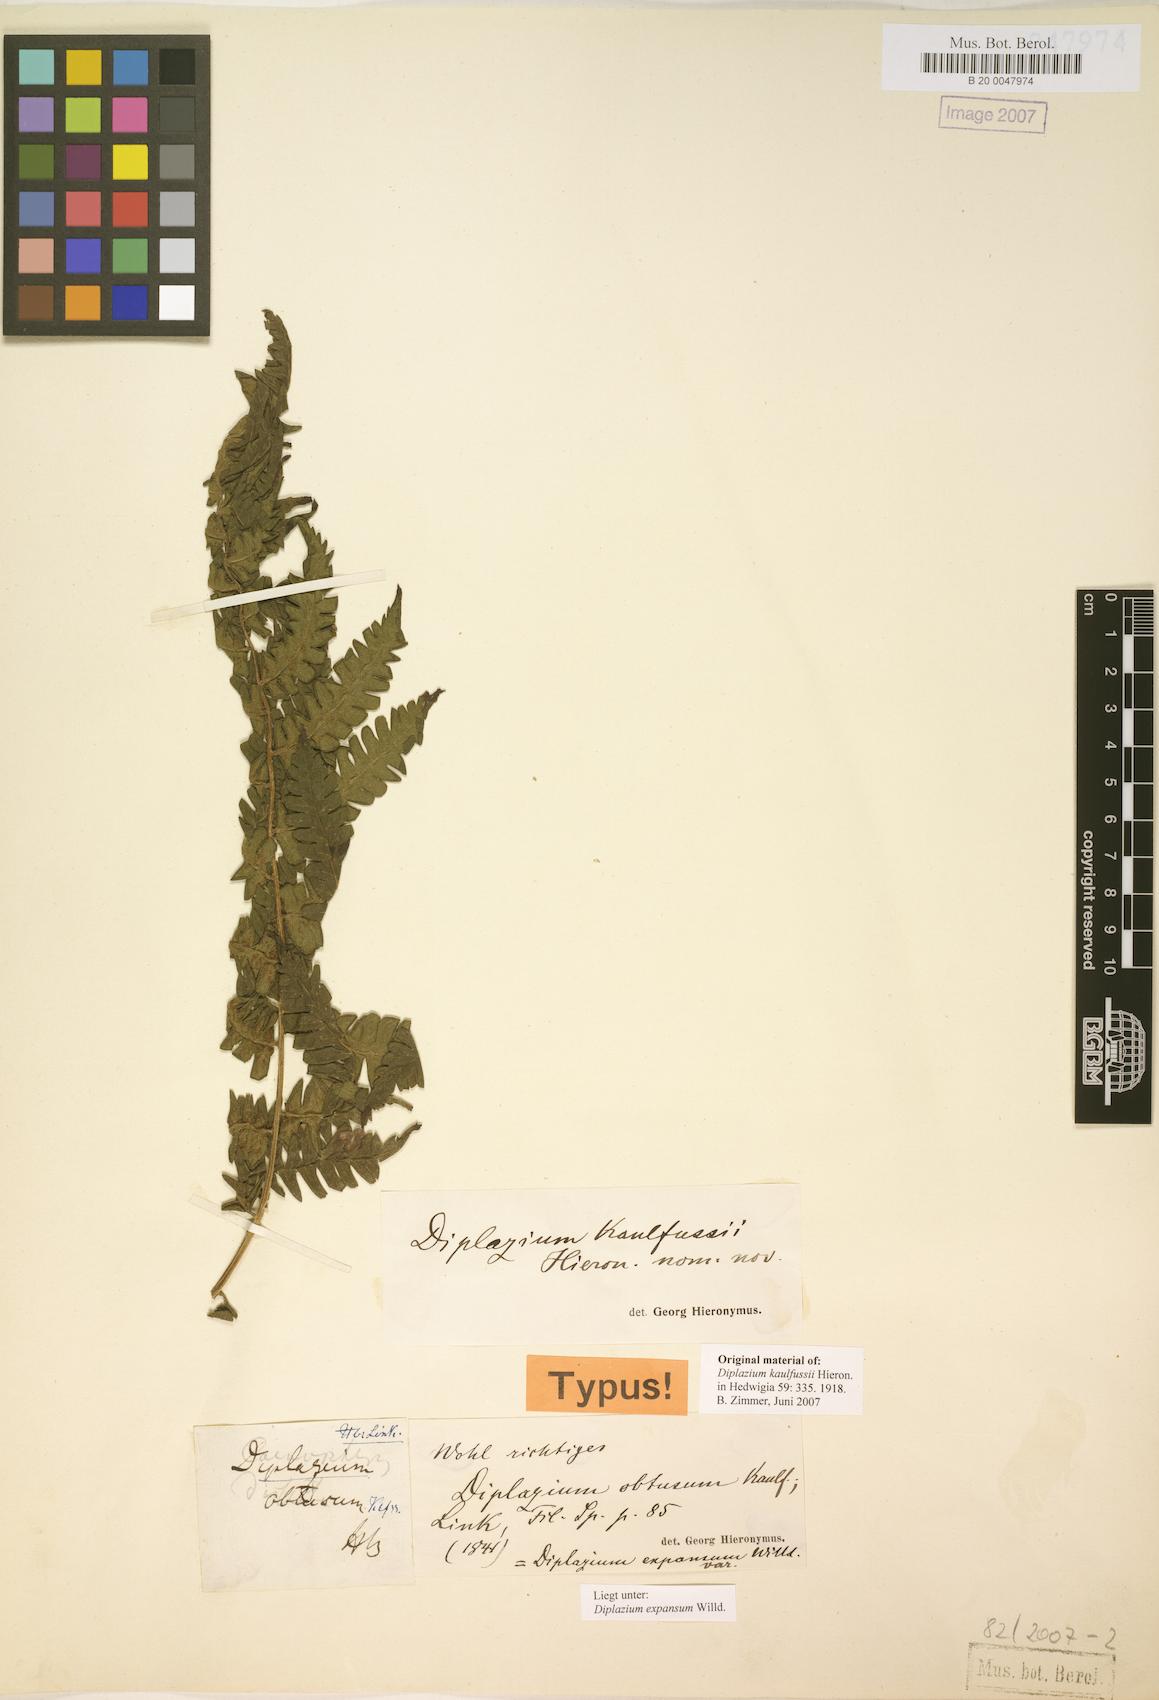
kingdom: Plantae
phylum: Tracheophyta
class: Polypodiopsida
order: Polypodiales
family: Athyriaceae
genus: Diplazium
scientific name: Diplazium expansum
